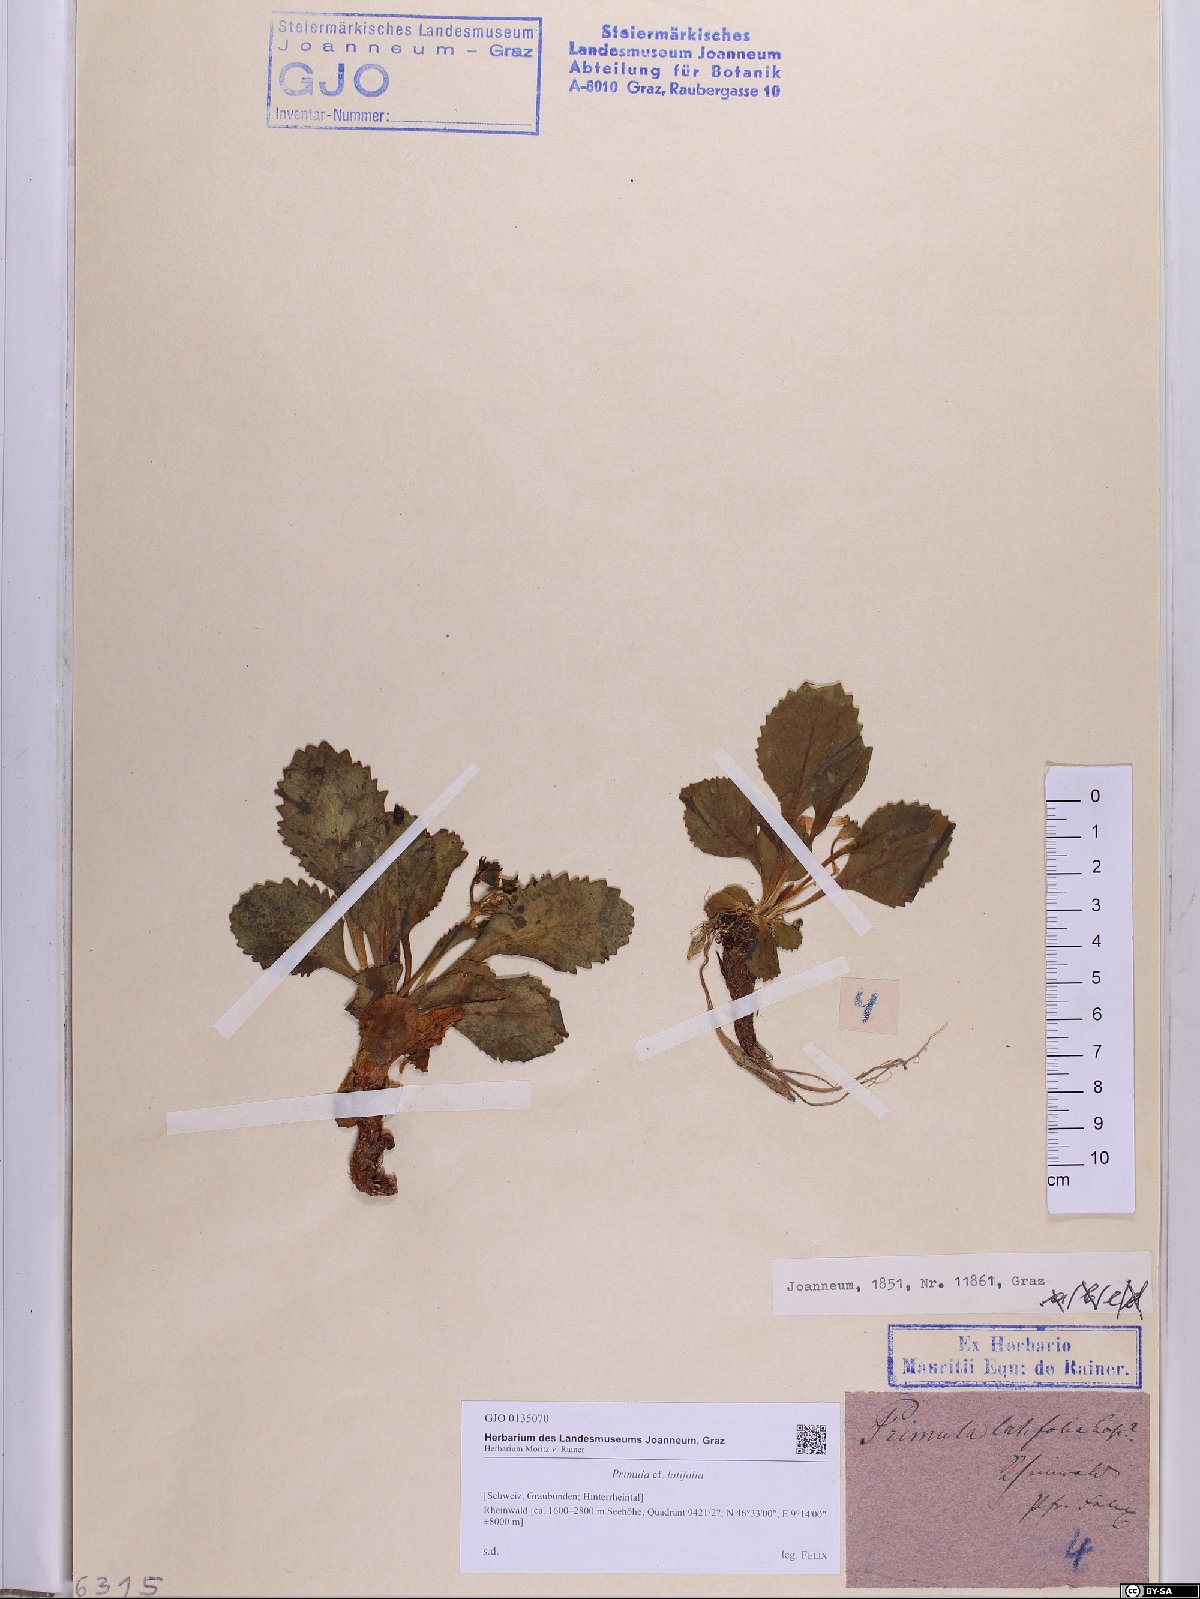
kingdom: Plantae
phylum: Tracheophyta
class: Magnoliopsida
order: Ericales
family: Primulaceae
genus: Primula
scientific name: Primula latifolia
